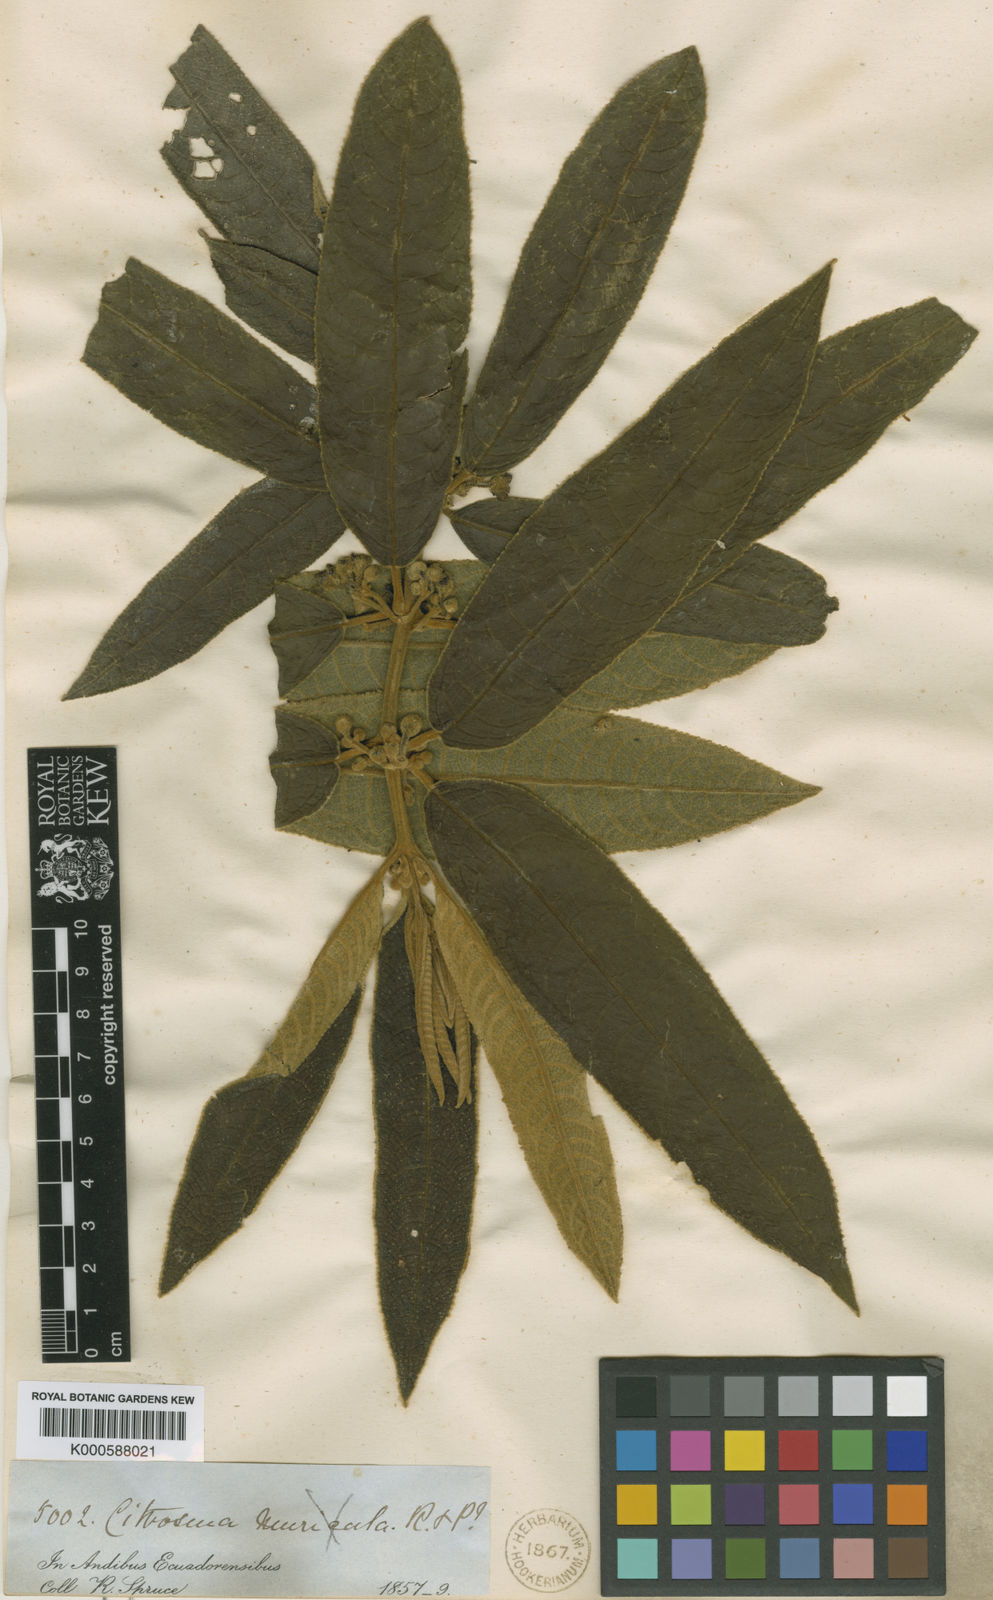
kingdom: Plantae
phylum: Tracheophyta
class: Magnoliopsida
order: Laurales
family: Siparunaceae
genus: Siparuna
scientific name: Siparuna muricata
